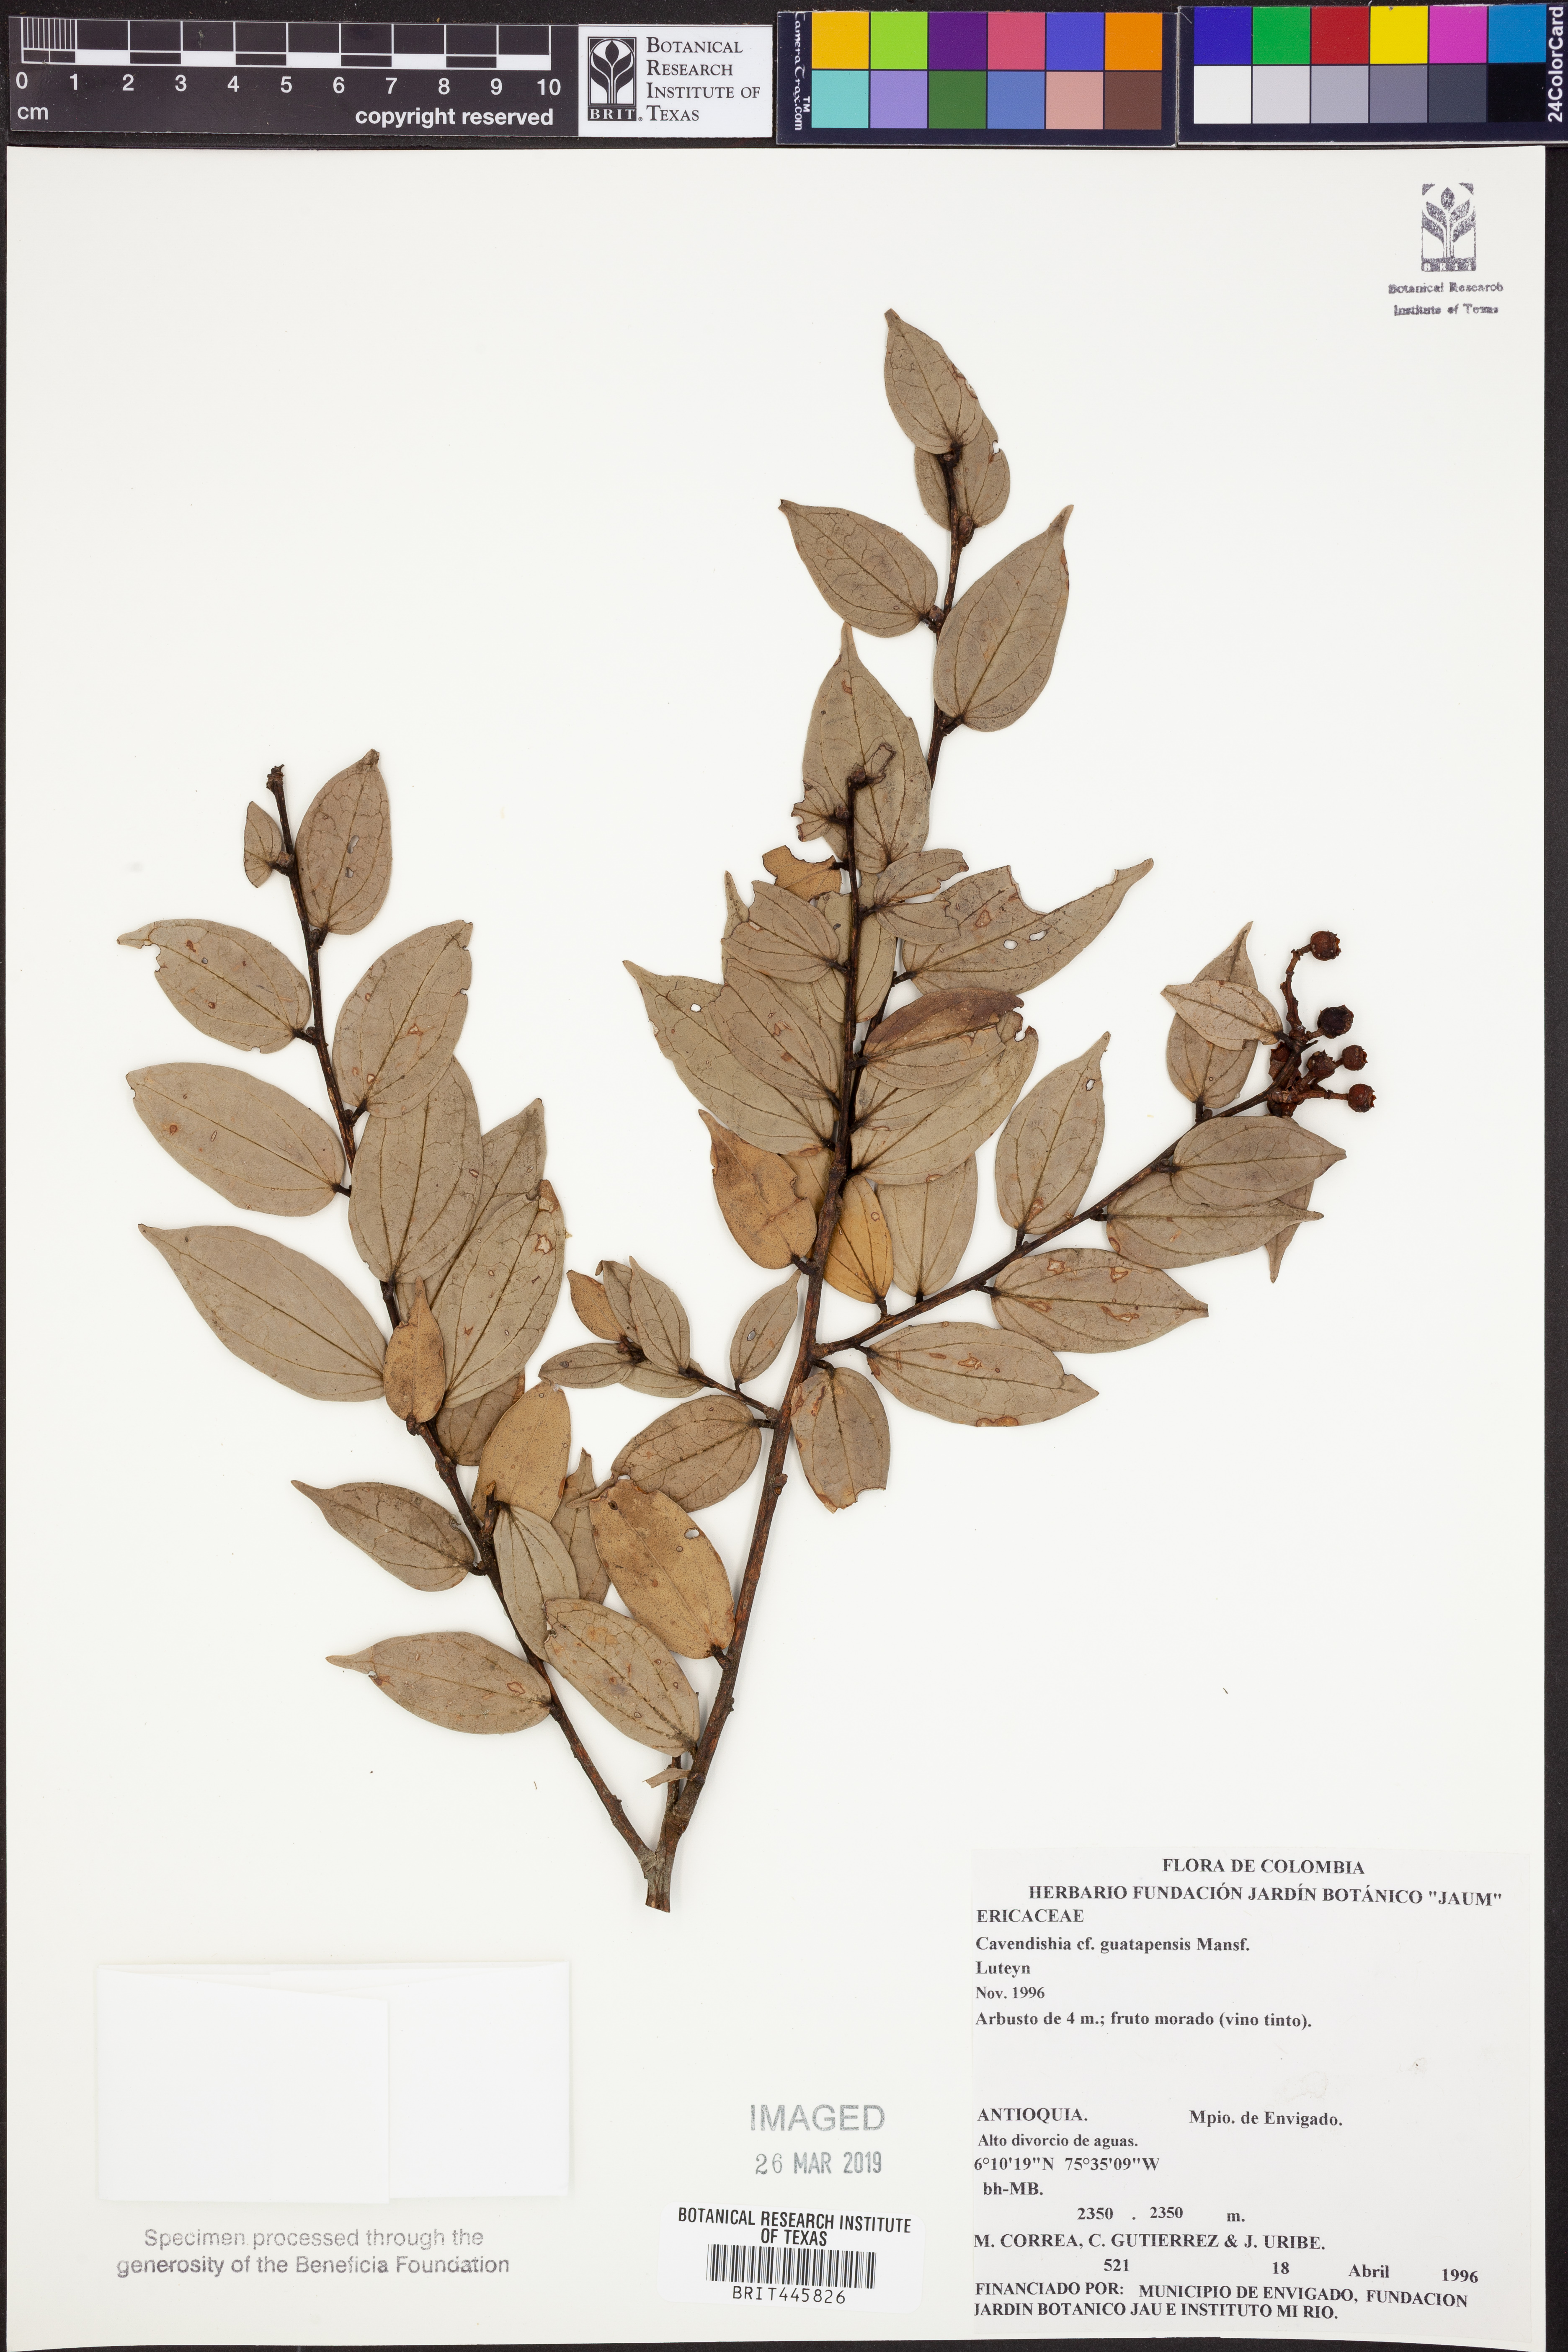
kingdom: Plantae
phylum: Tracheophyta
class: Magnoliopsida
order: Ericales
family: Ericaceae
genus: Cavendishia
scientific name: Cavendishia guatapeensis
